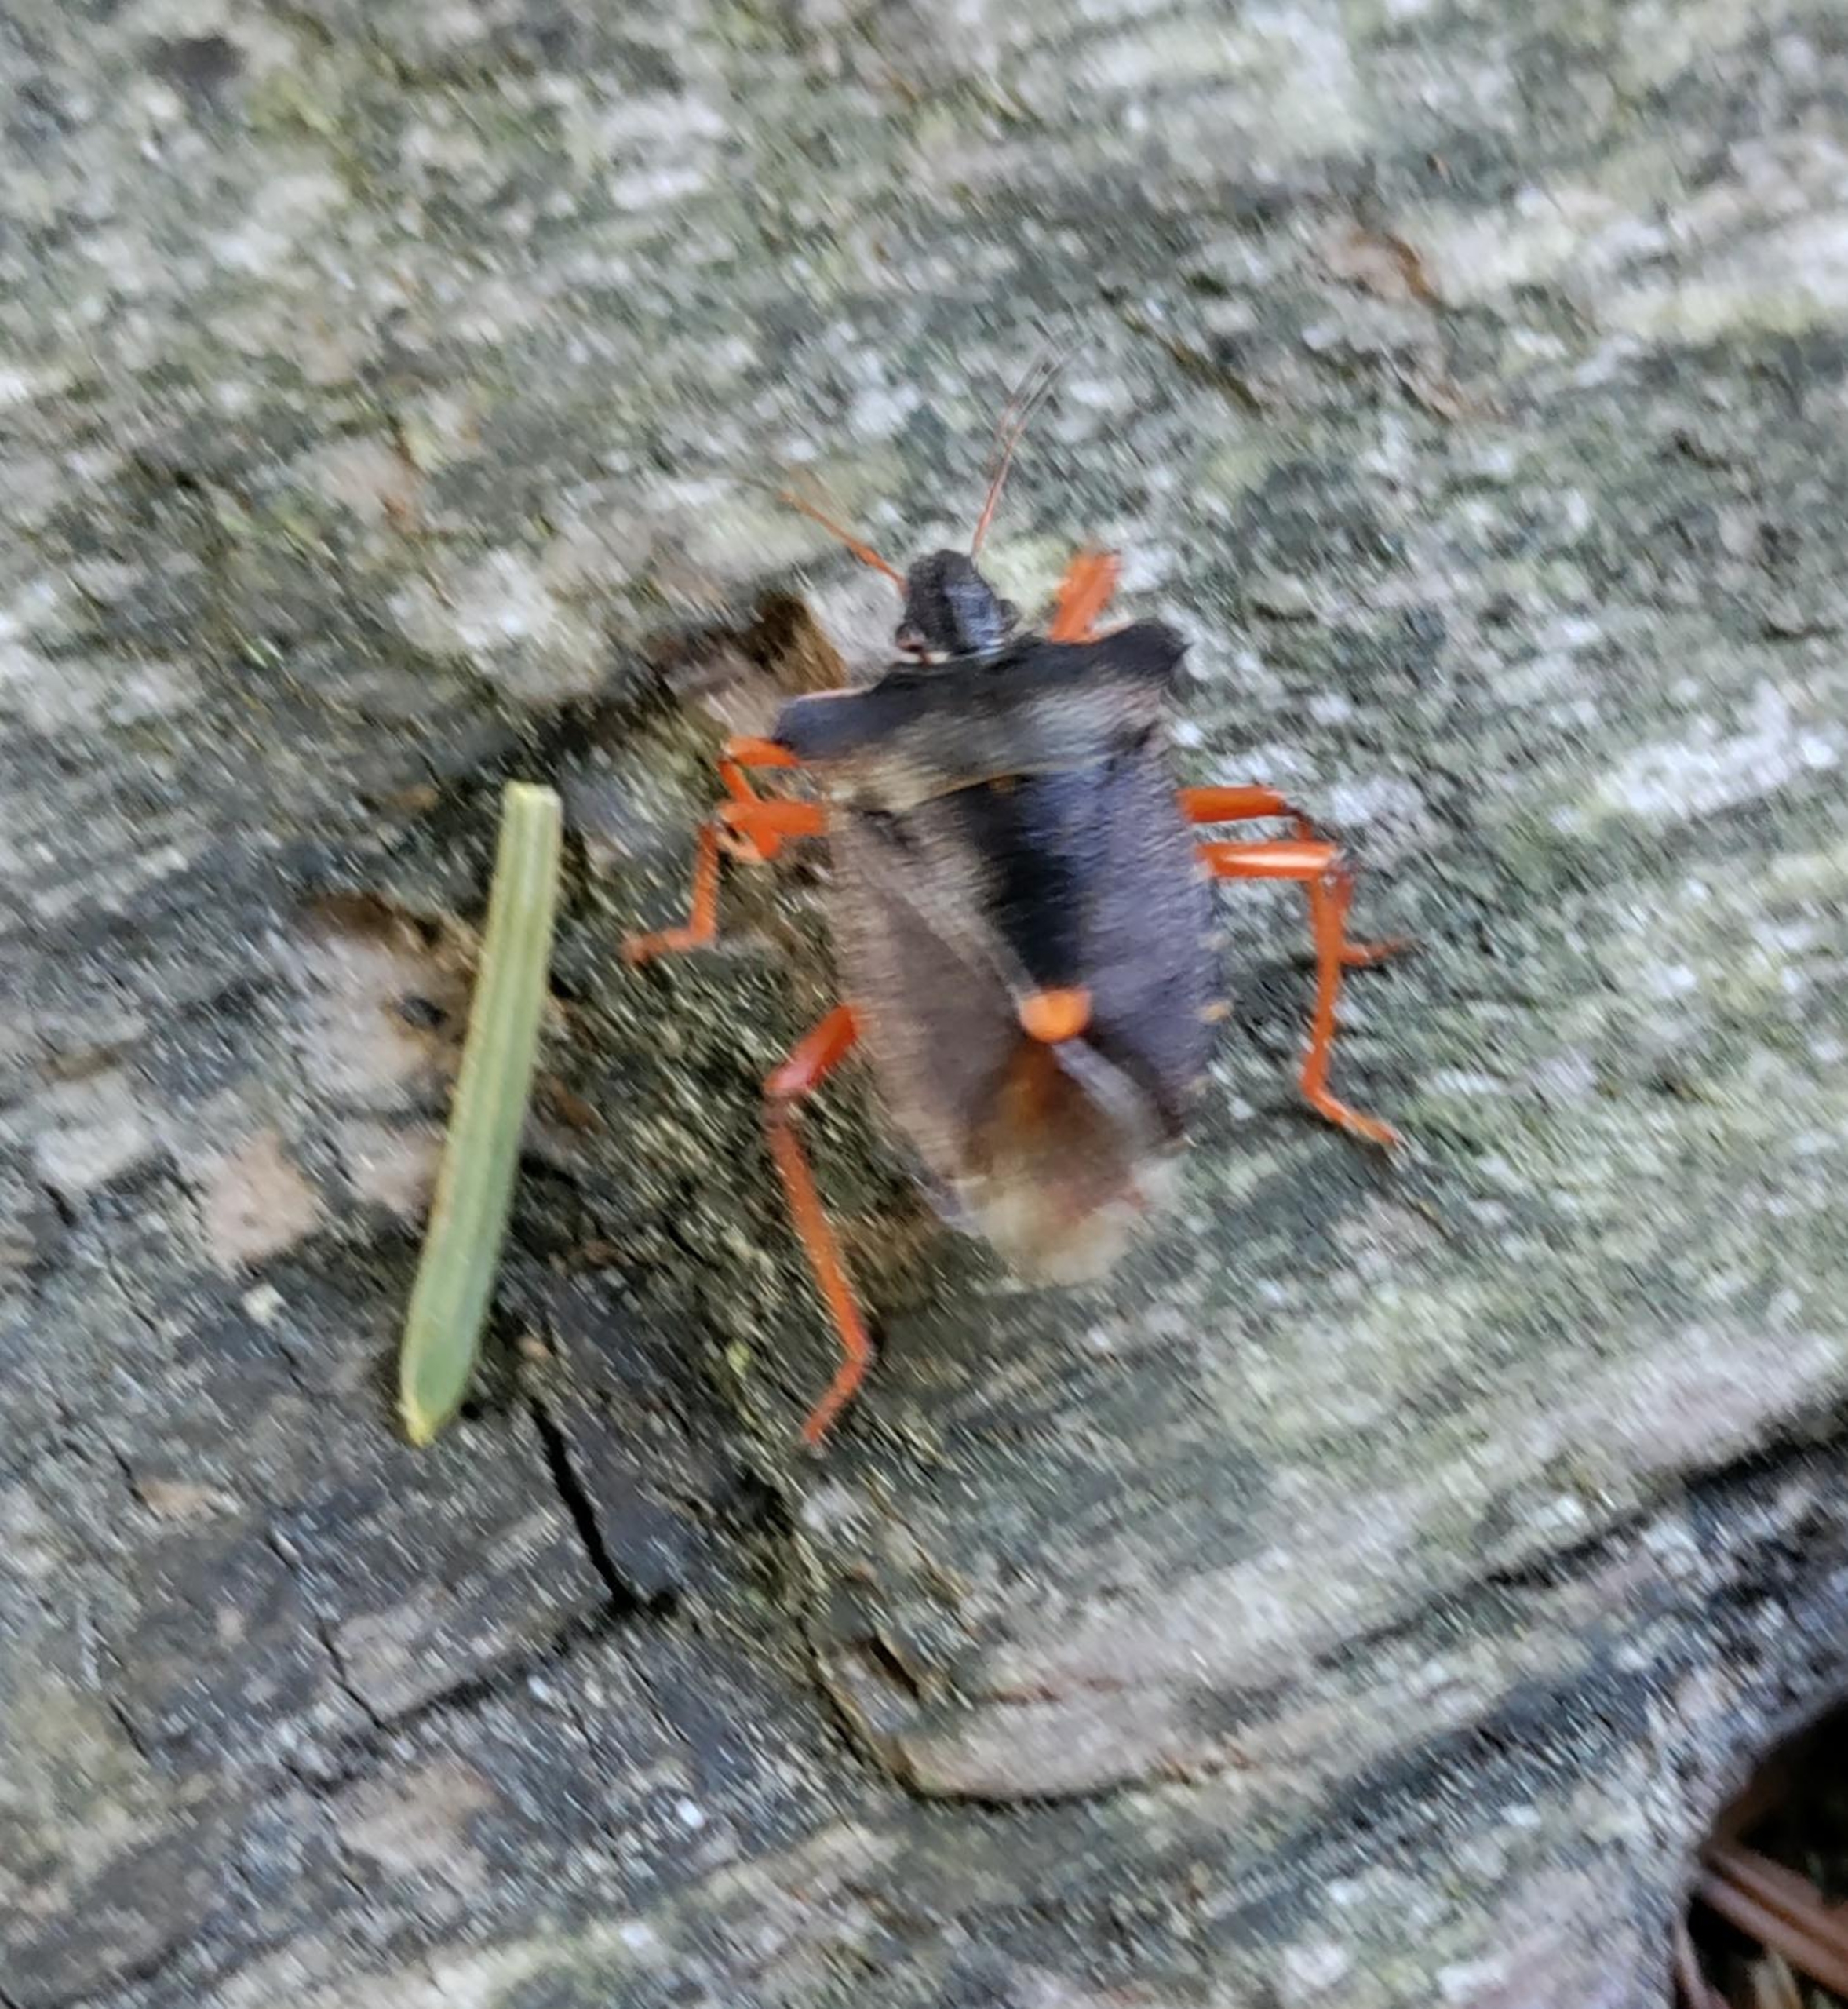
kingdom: Animalia
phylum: Arthropoda
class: Insecta
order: Hemiptera
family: Pentatomidae
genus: Pentatoma
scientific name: Pentatoma rufipes
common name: Rødbenet bredtæge
